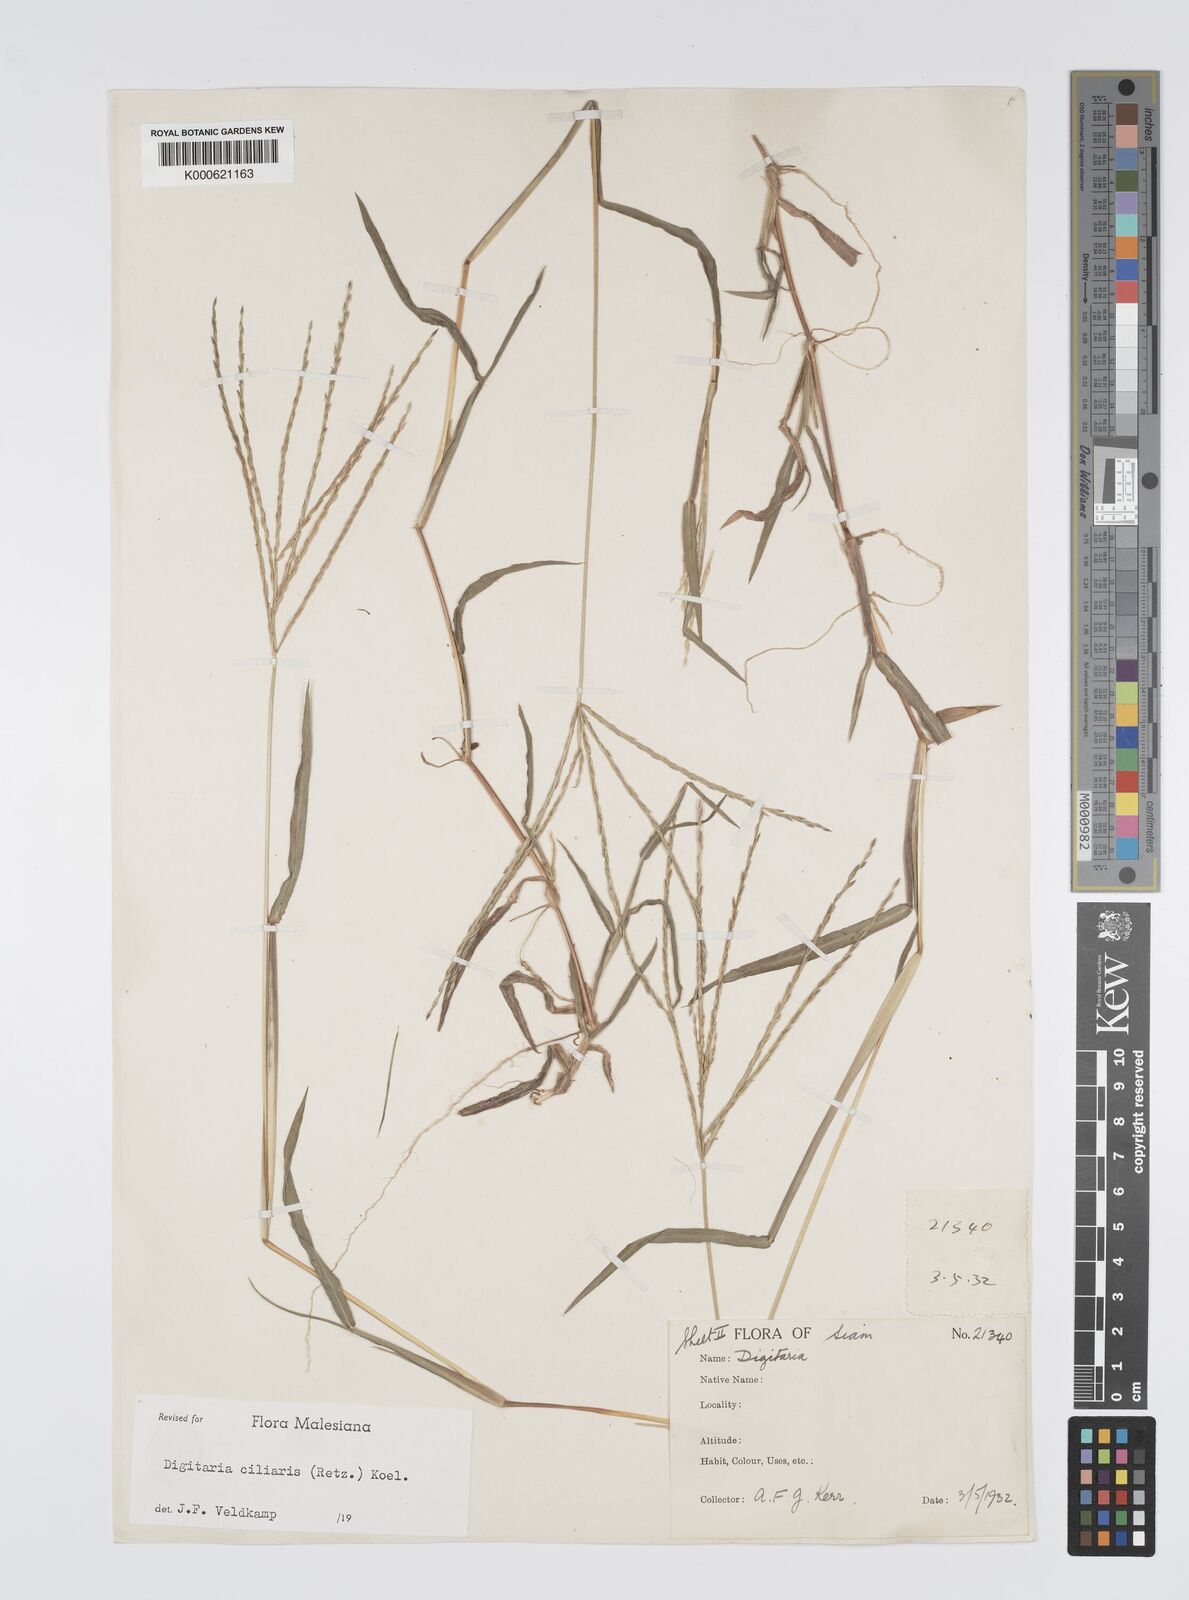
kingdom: Plantae
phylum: Tracheophyta
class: Liliopsida
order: Poales
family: Poaceae
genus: Digitaria
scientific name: Digitaria ciliaris
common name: Tropical finger-grass
